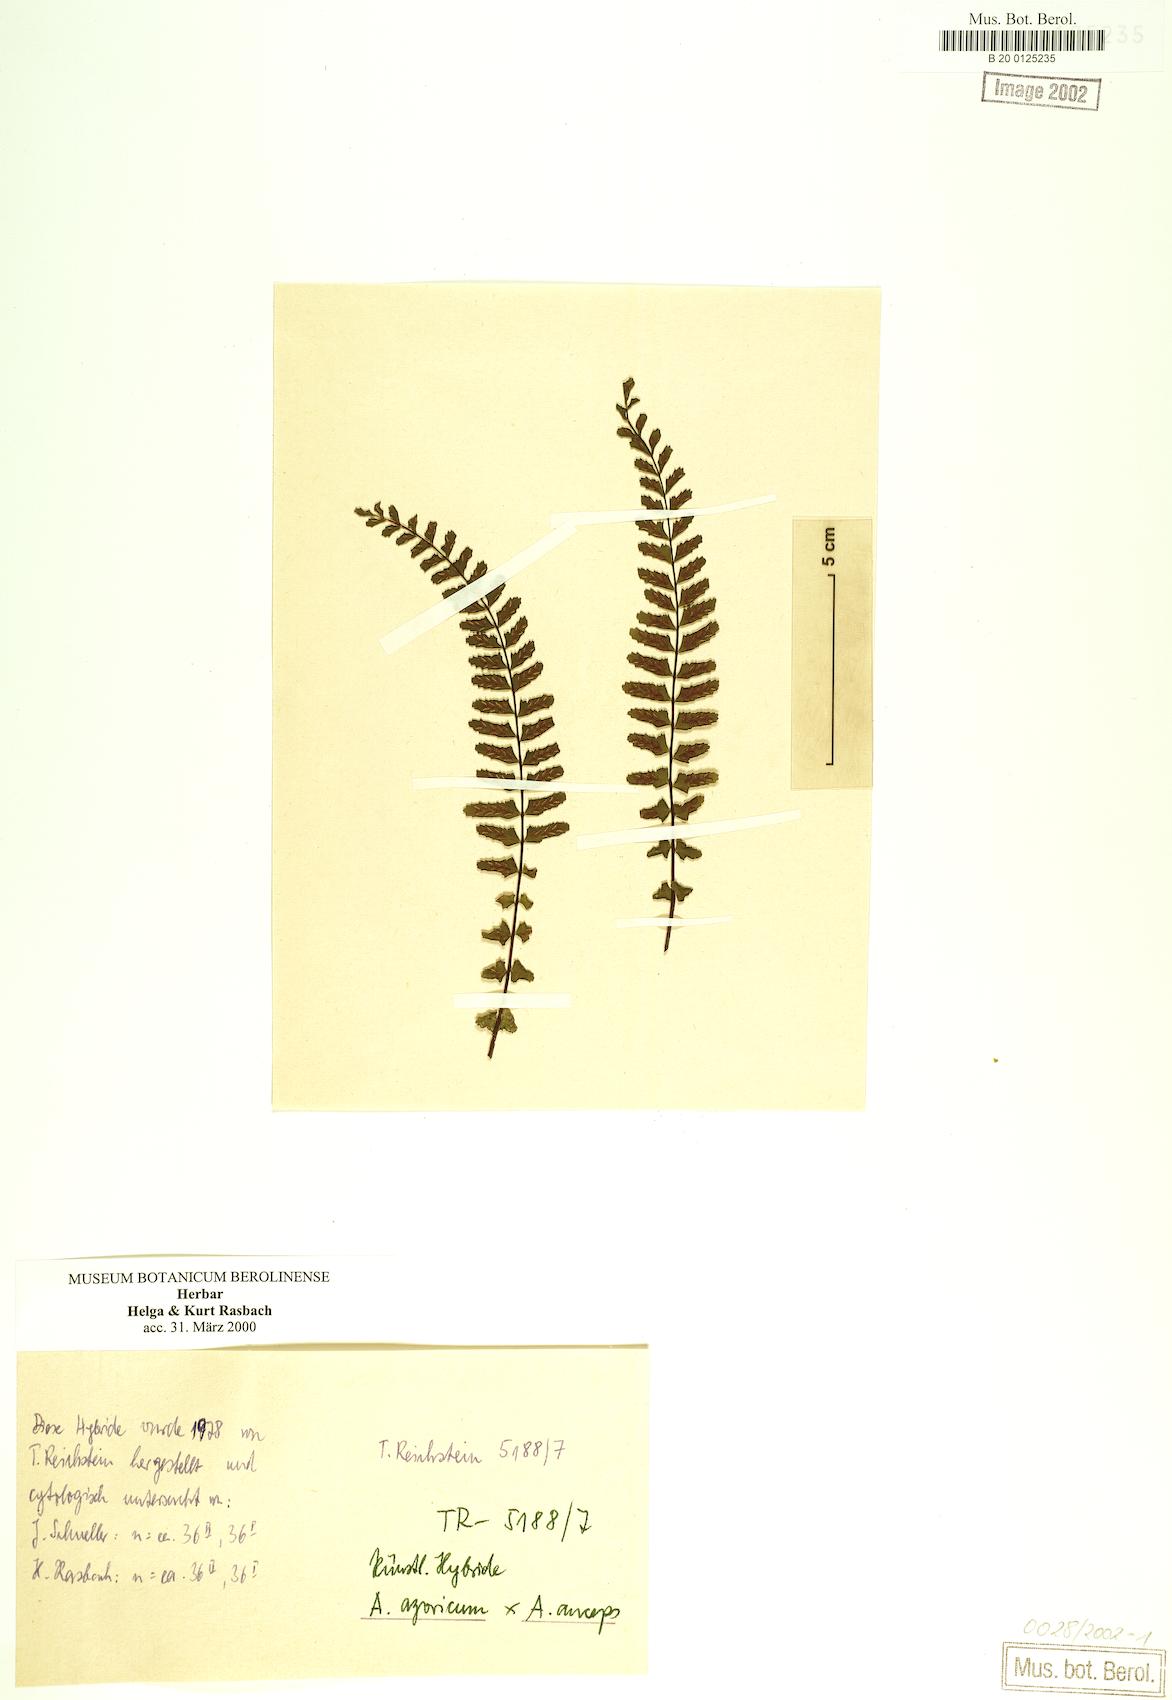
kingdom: Plantae
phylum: Tracheophyta
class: Polypodiopsida
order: Polypodiales
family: Aspleniaceae
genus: Asplenium
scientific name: Asplenium azoricum
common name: Azorean spleenwort
